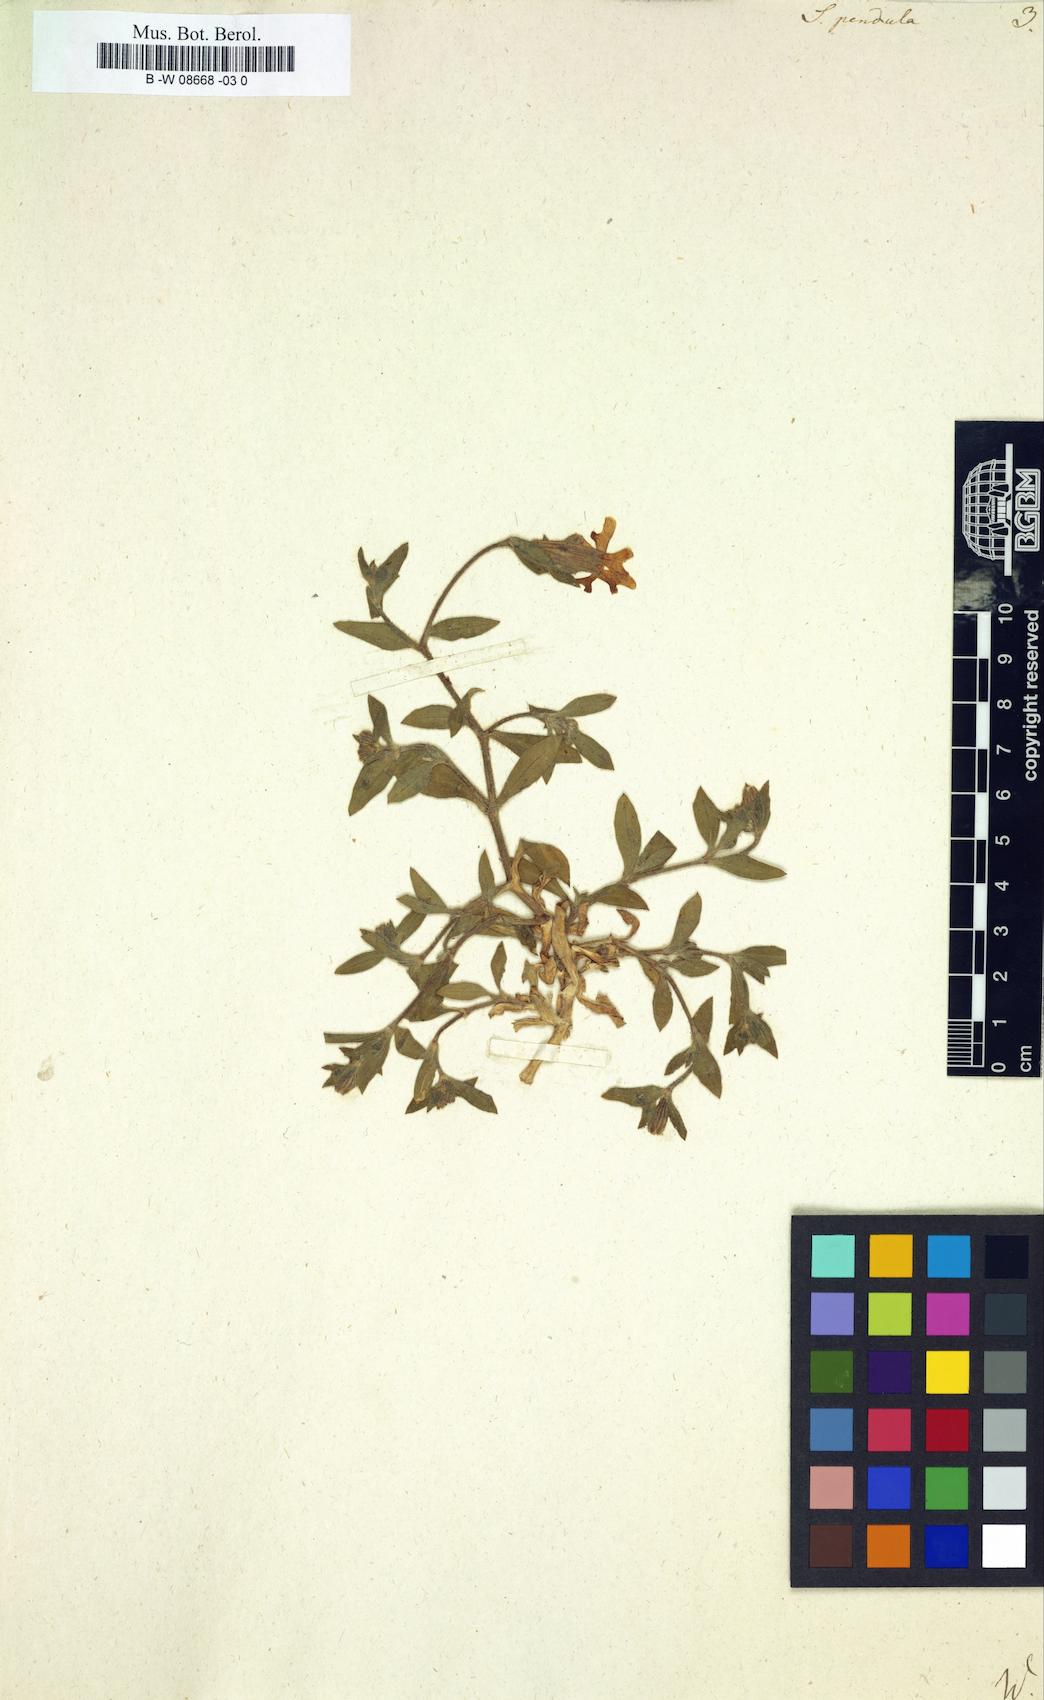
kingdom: Plantae
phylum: Tracheophyta
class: Magnoliopsida
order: Caryophyllales
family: Caryophyllaceae
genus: Silene
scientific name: Silene pendula
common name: Nodding catchfly
